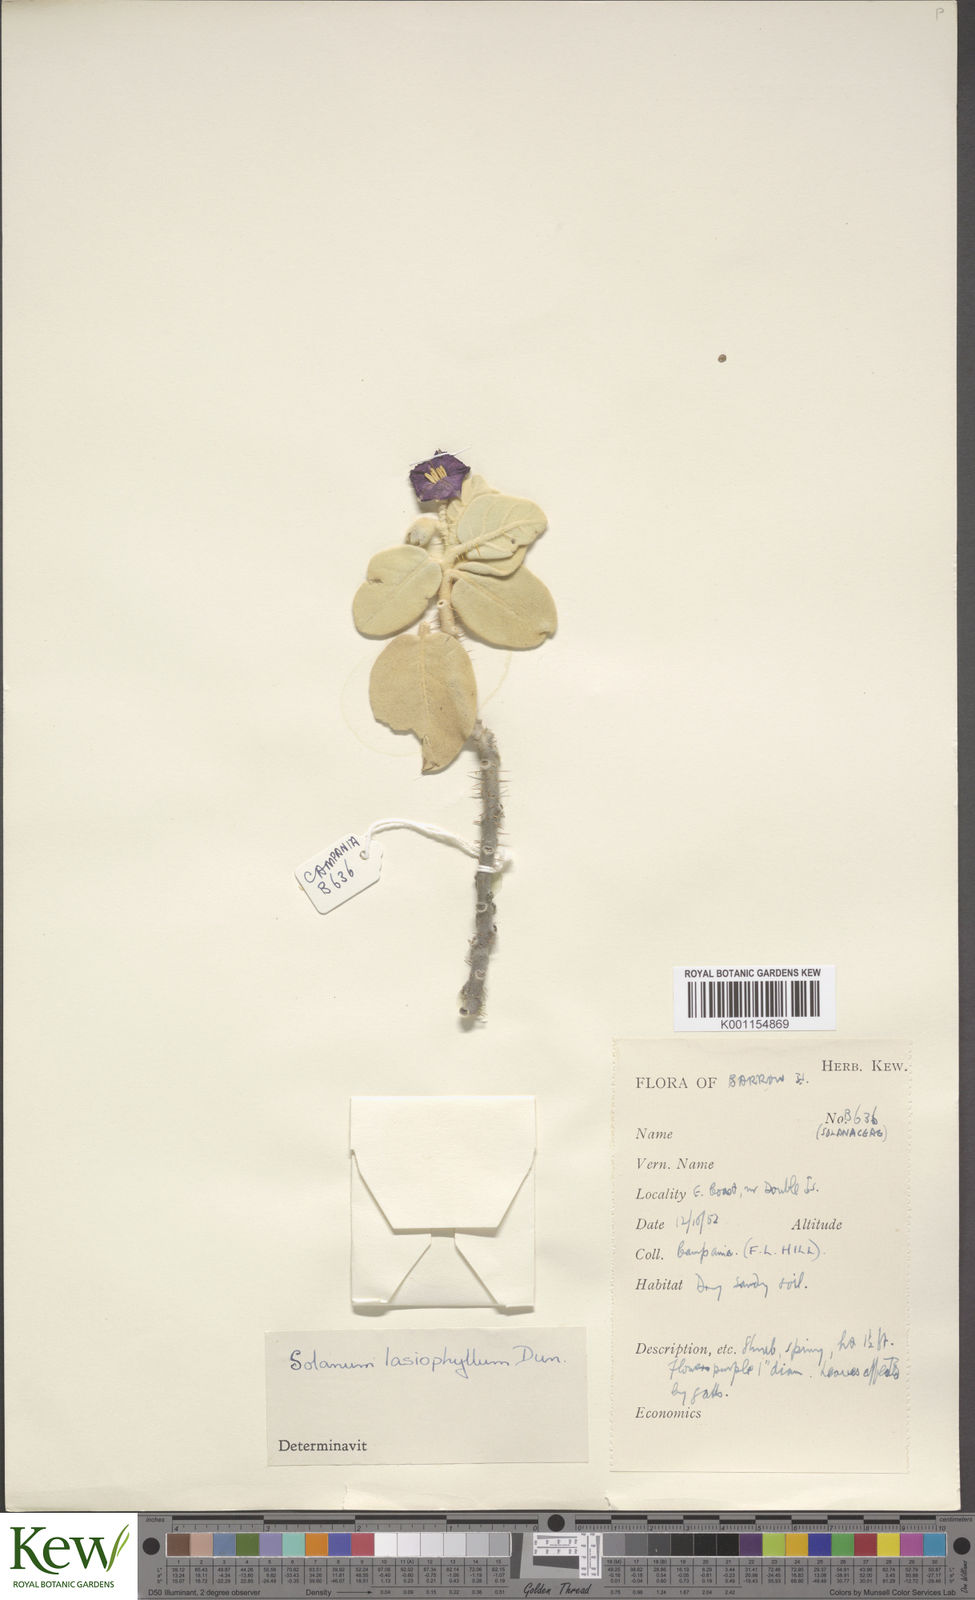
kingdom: Plantae
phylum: Tracheophyta
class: Magnoliopsida
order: Solanales
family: Solanaceae
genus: Solanum
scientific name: Solanum lasiophyllum
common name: Flannelbush
